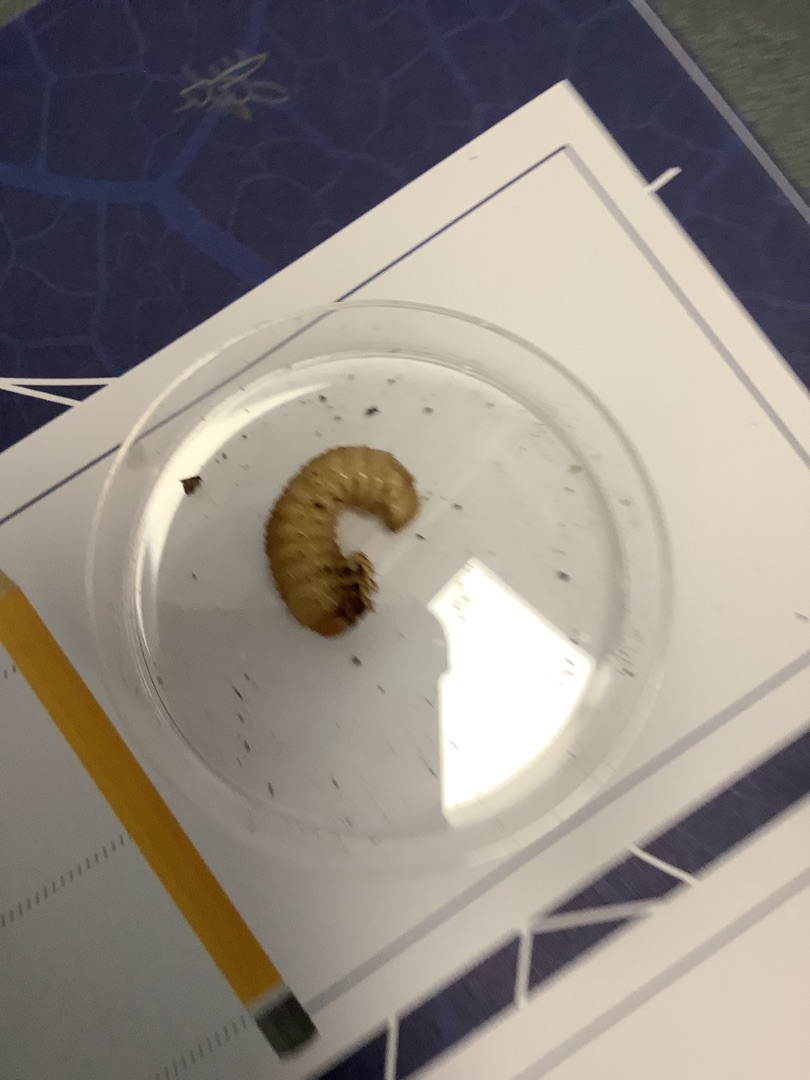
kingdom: Animalia
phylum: Arthropoda
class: Insecta
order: Coleoptera
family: Scarabaeidae
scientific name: Scarabaeidae
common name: Torbister
